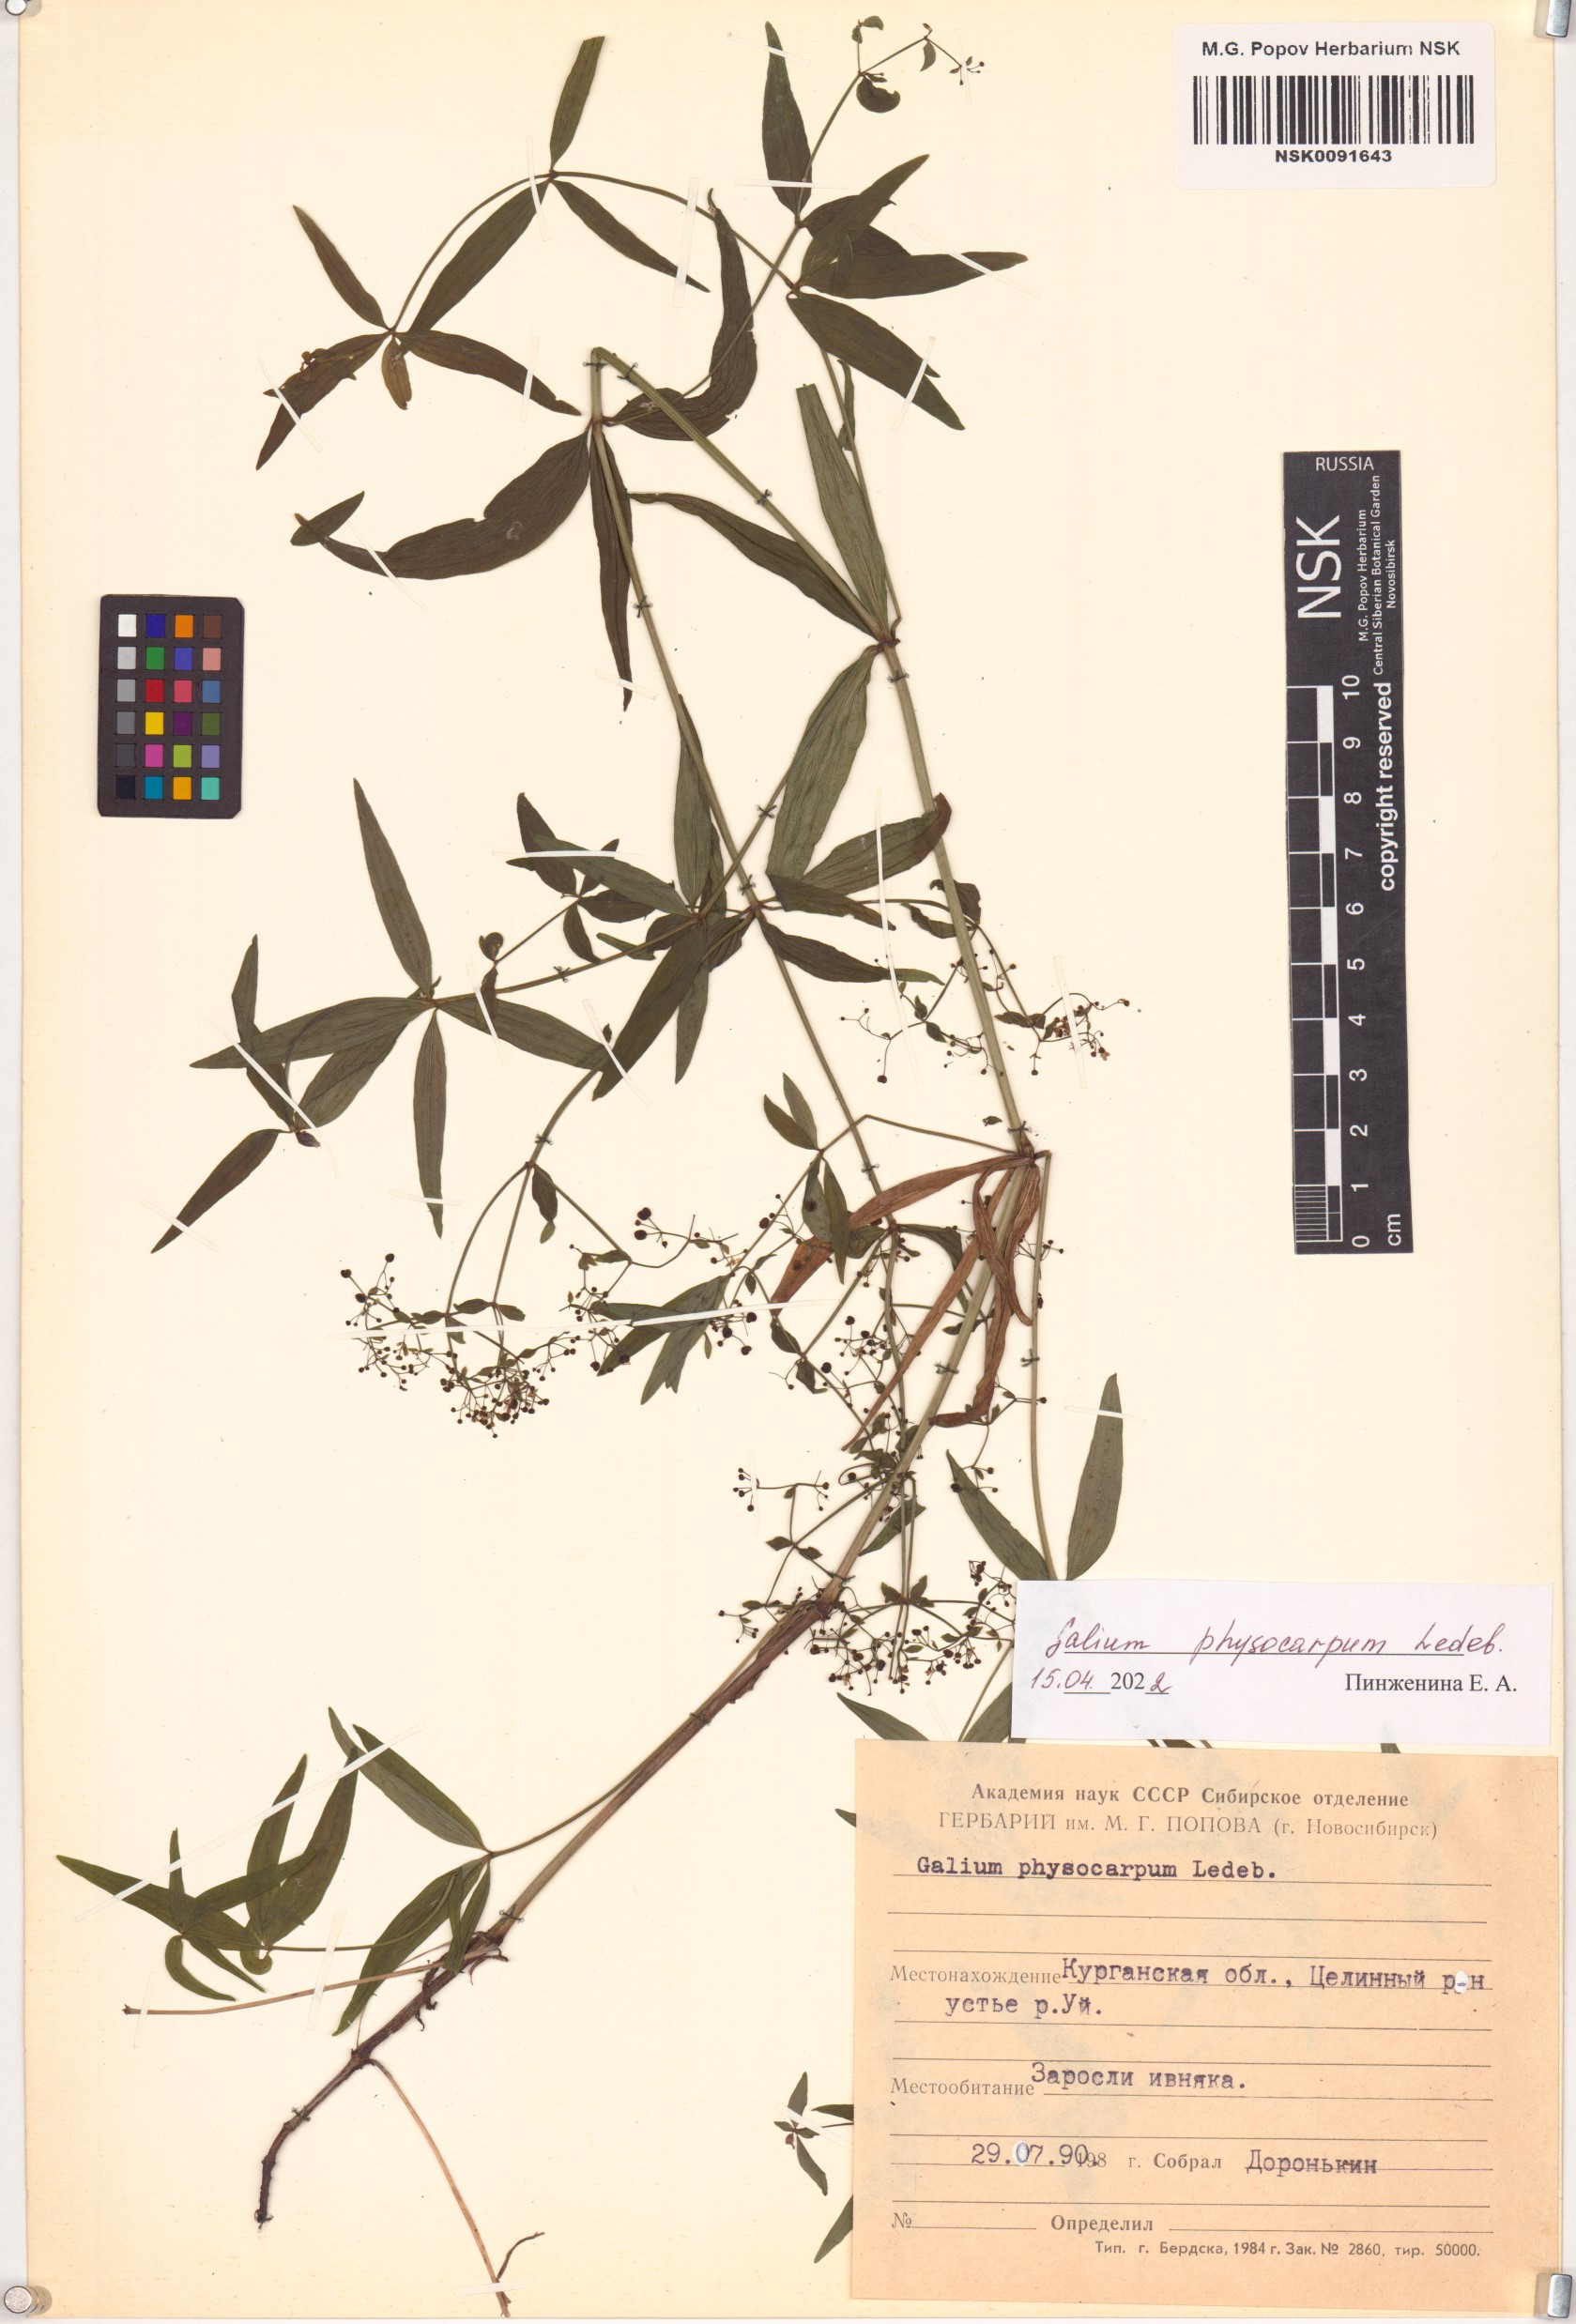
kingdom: Plantae
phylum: Tracheophyta
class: Magnoliopsida
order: Gentianales
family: Rubiaceae
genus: Galium
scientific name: Galium rubioides
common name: European bedstraw
